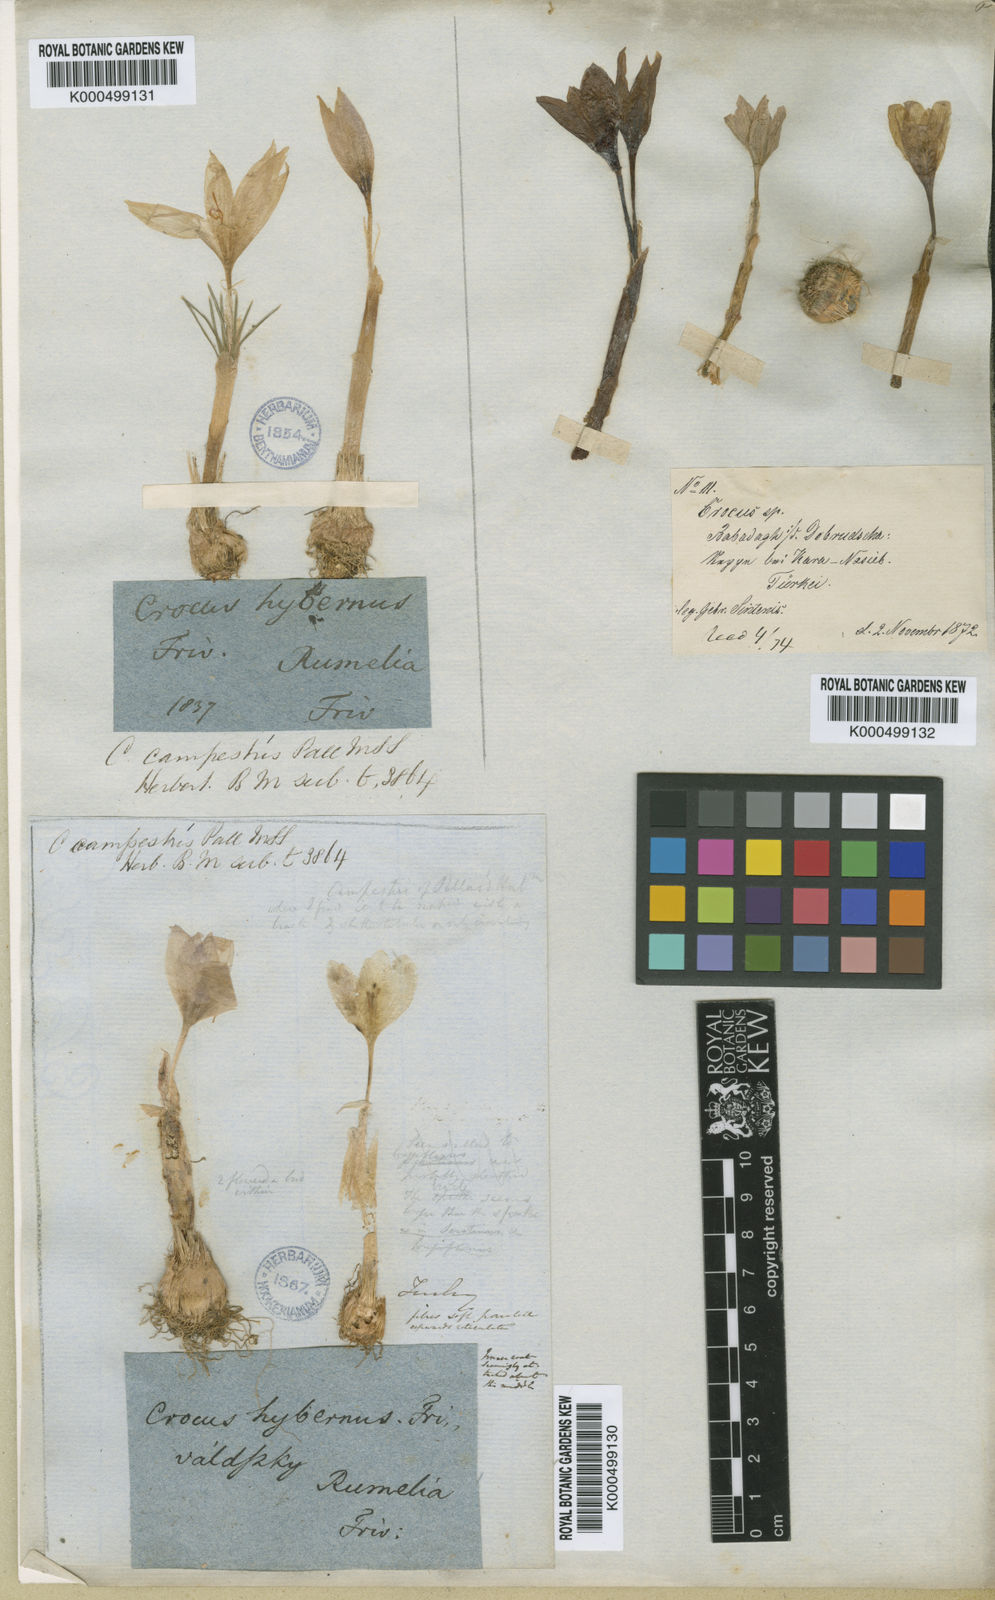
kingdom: Plantae
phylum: Tracheophyta
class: Liliopsida
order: Asparagales
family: Iridaceae
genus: Crocus
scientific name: Crocus pallasii
